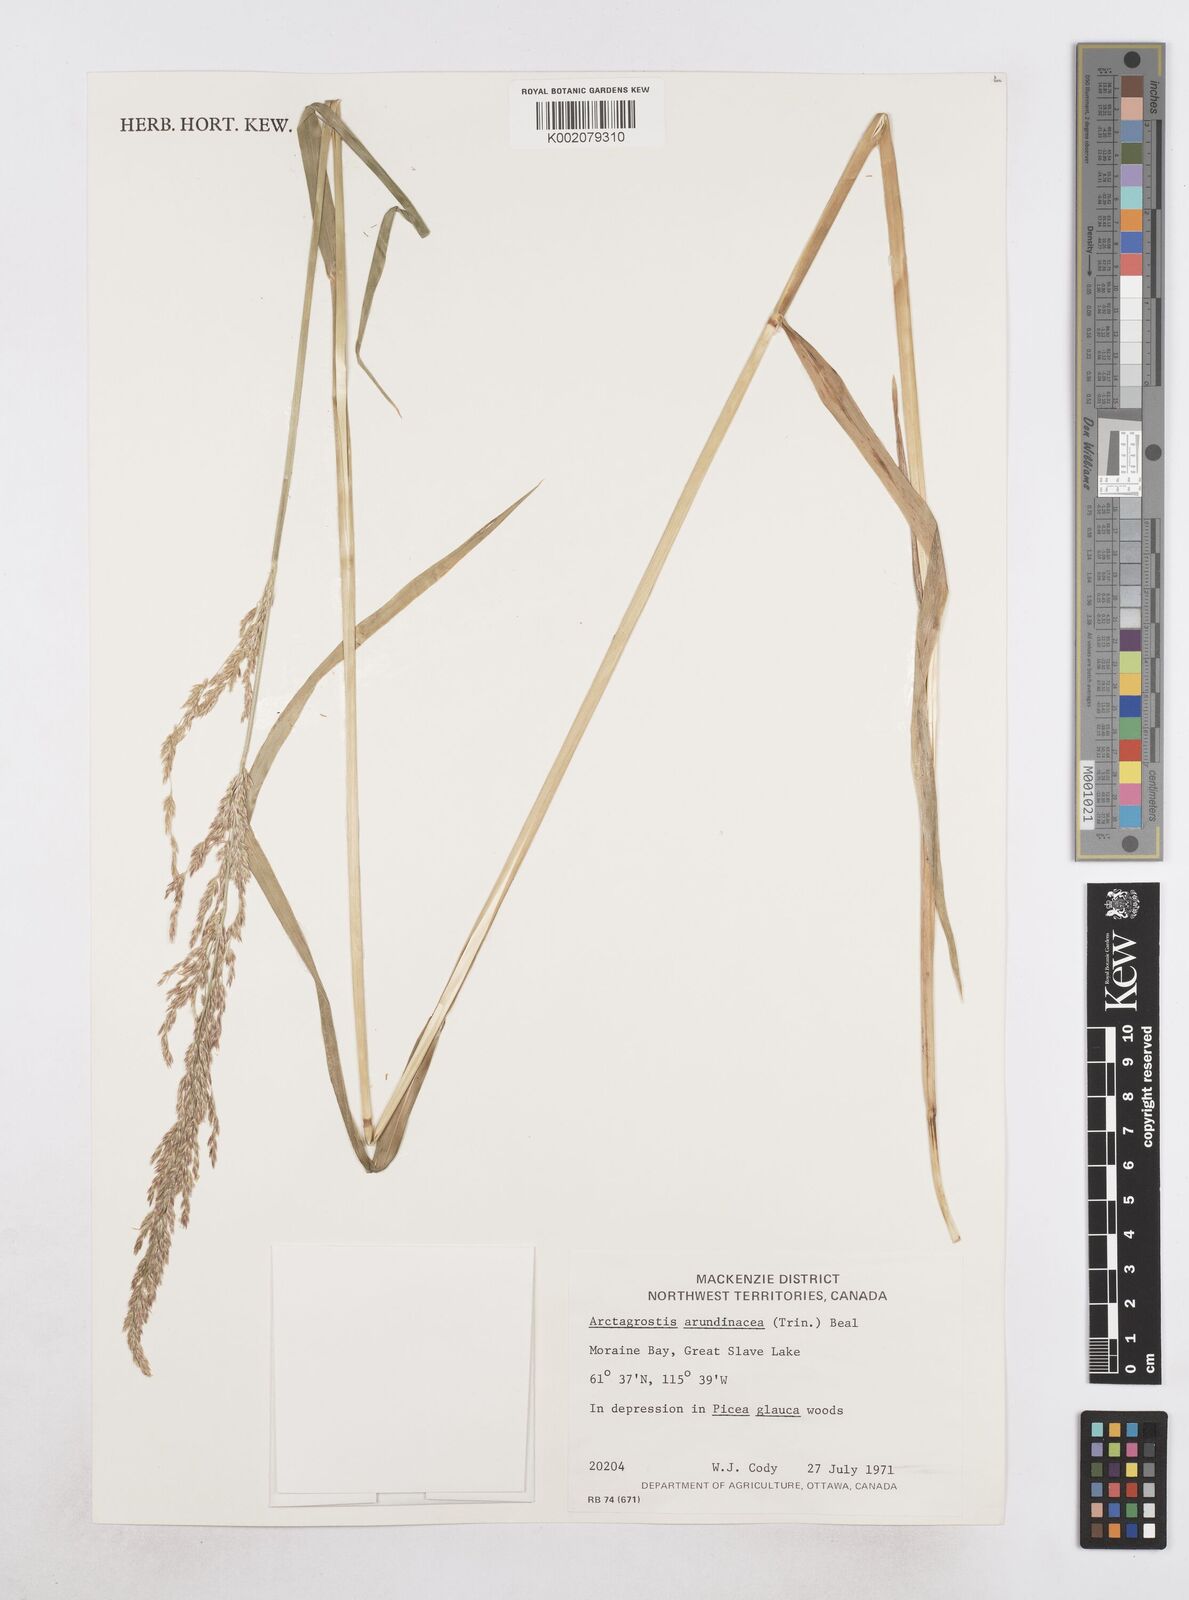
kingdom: Plantae
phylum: Tracheophyta
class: Liliopsida
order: Poales
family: Poaceae
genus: Arctagrostis
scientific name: Arctagrostis arundinacea
